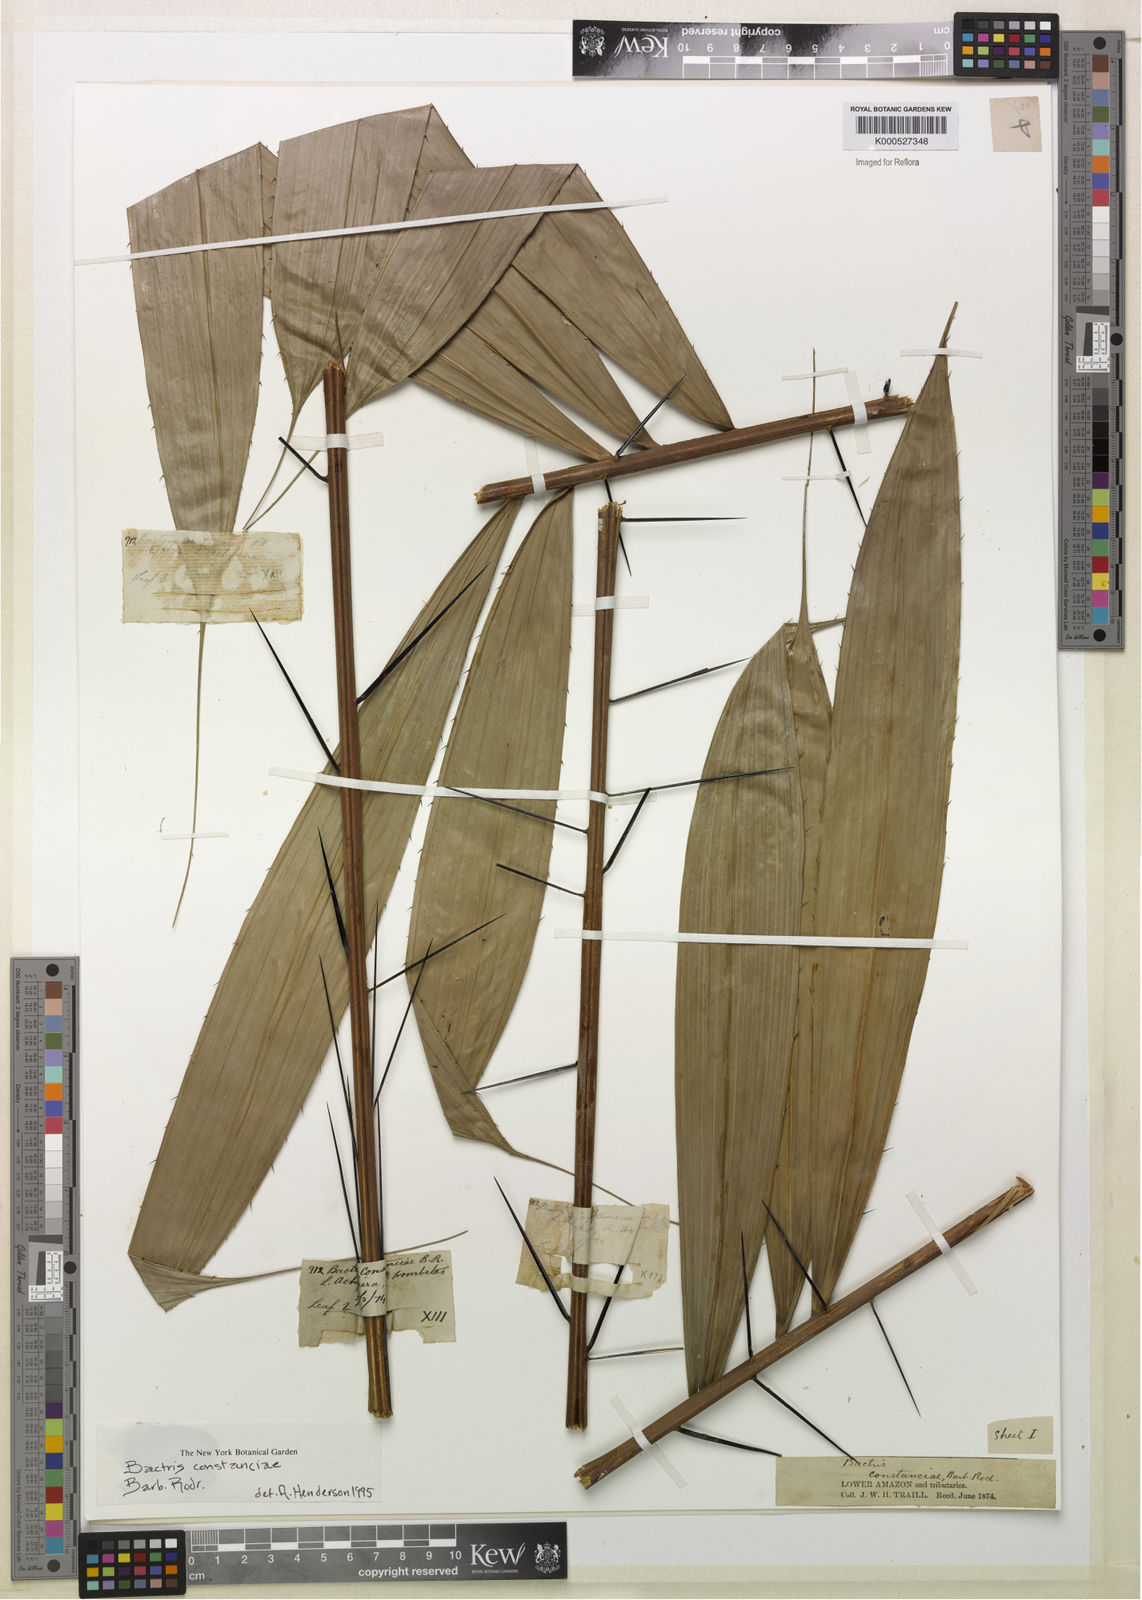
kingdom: Plantae
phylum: Tracheophyta
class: Liliopsida
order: Arecales
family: Arecaceae
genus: Bactris
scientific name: Bactris constanciae
